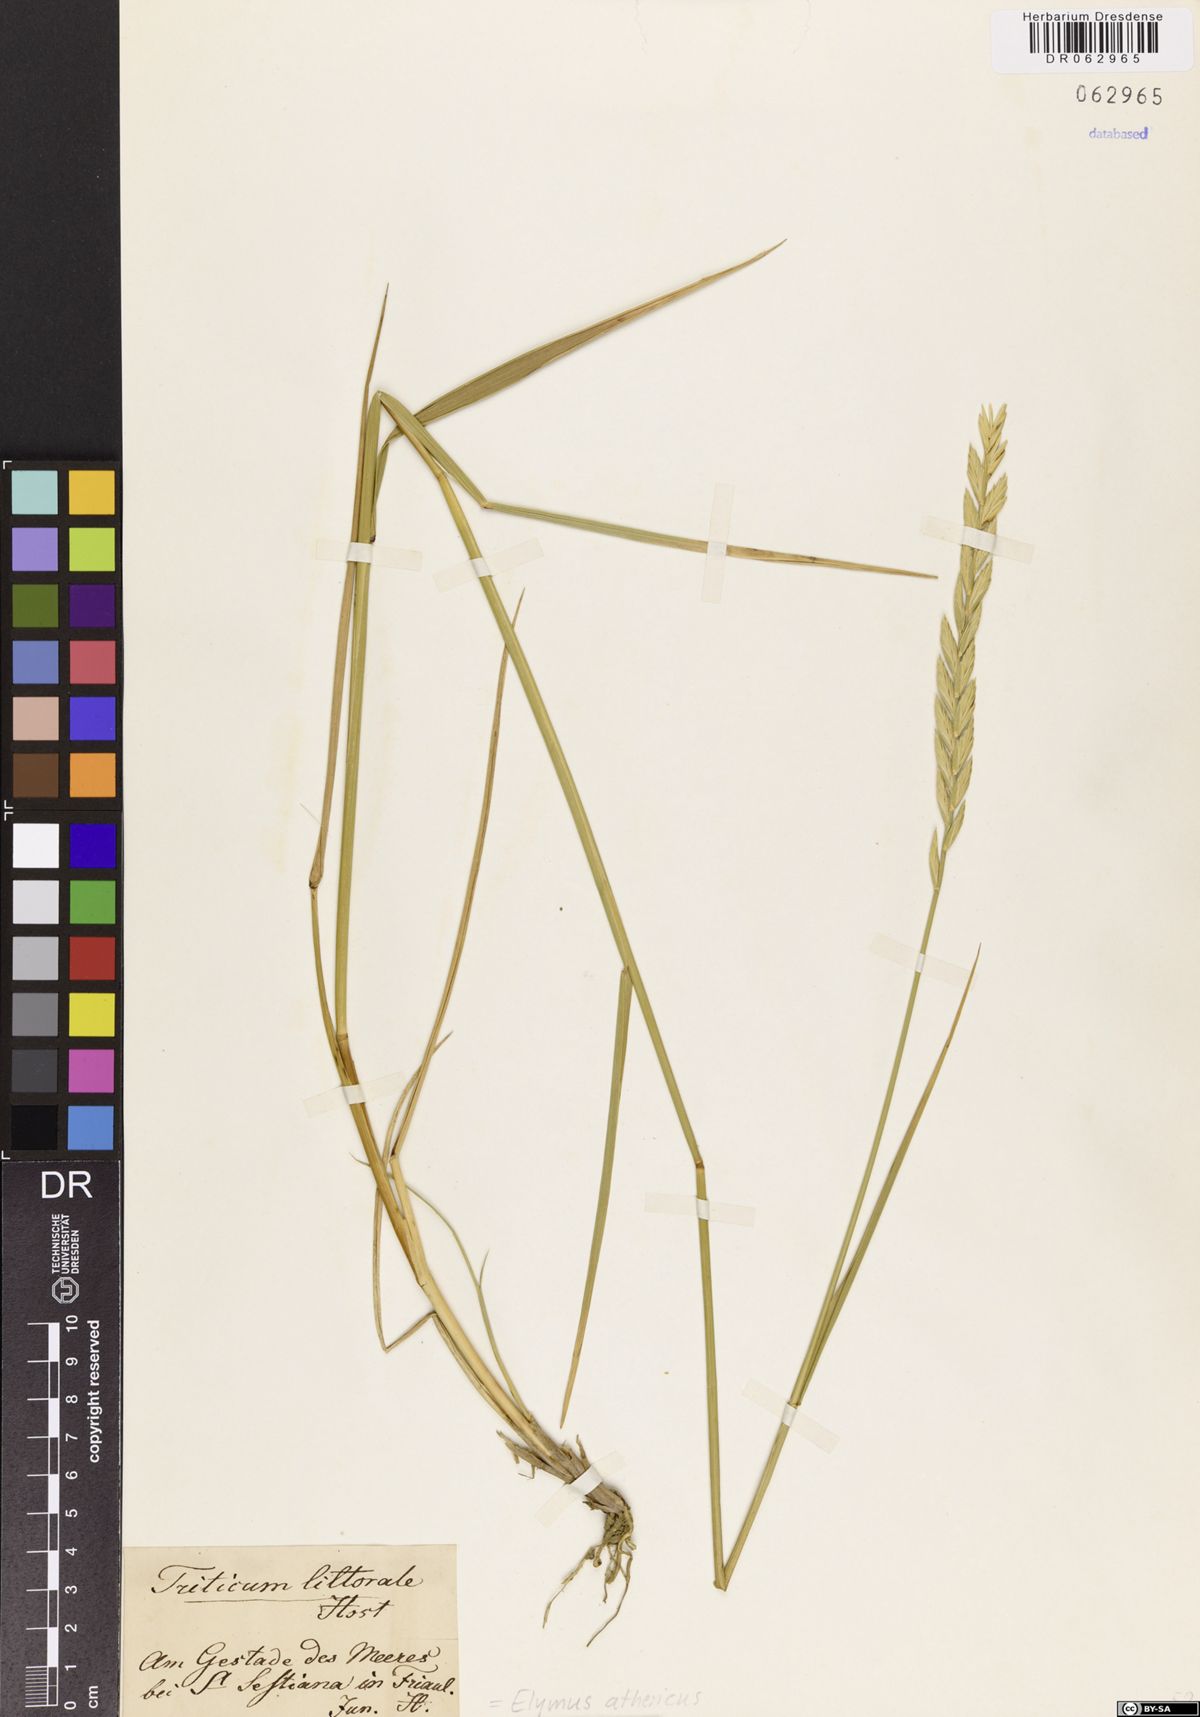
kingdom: Plantae
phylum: Tracheophyta
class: Liliopsida
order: Poales
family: Poaceae
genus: Elymus
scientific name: Elymus athericus
